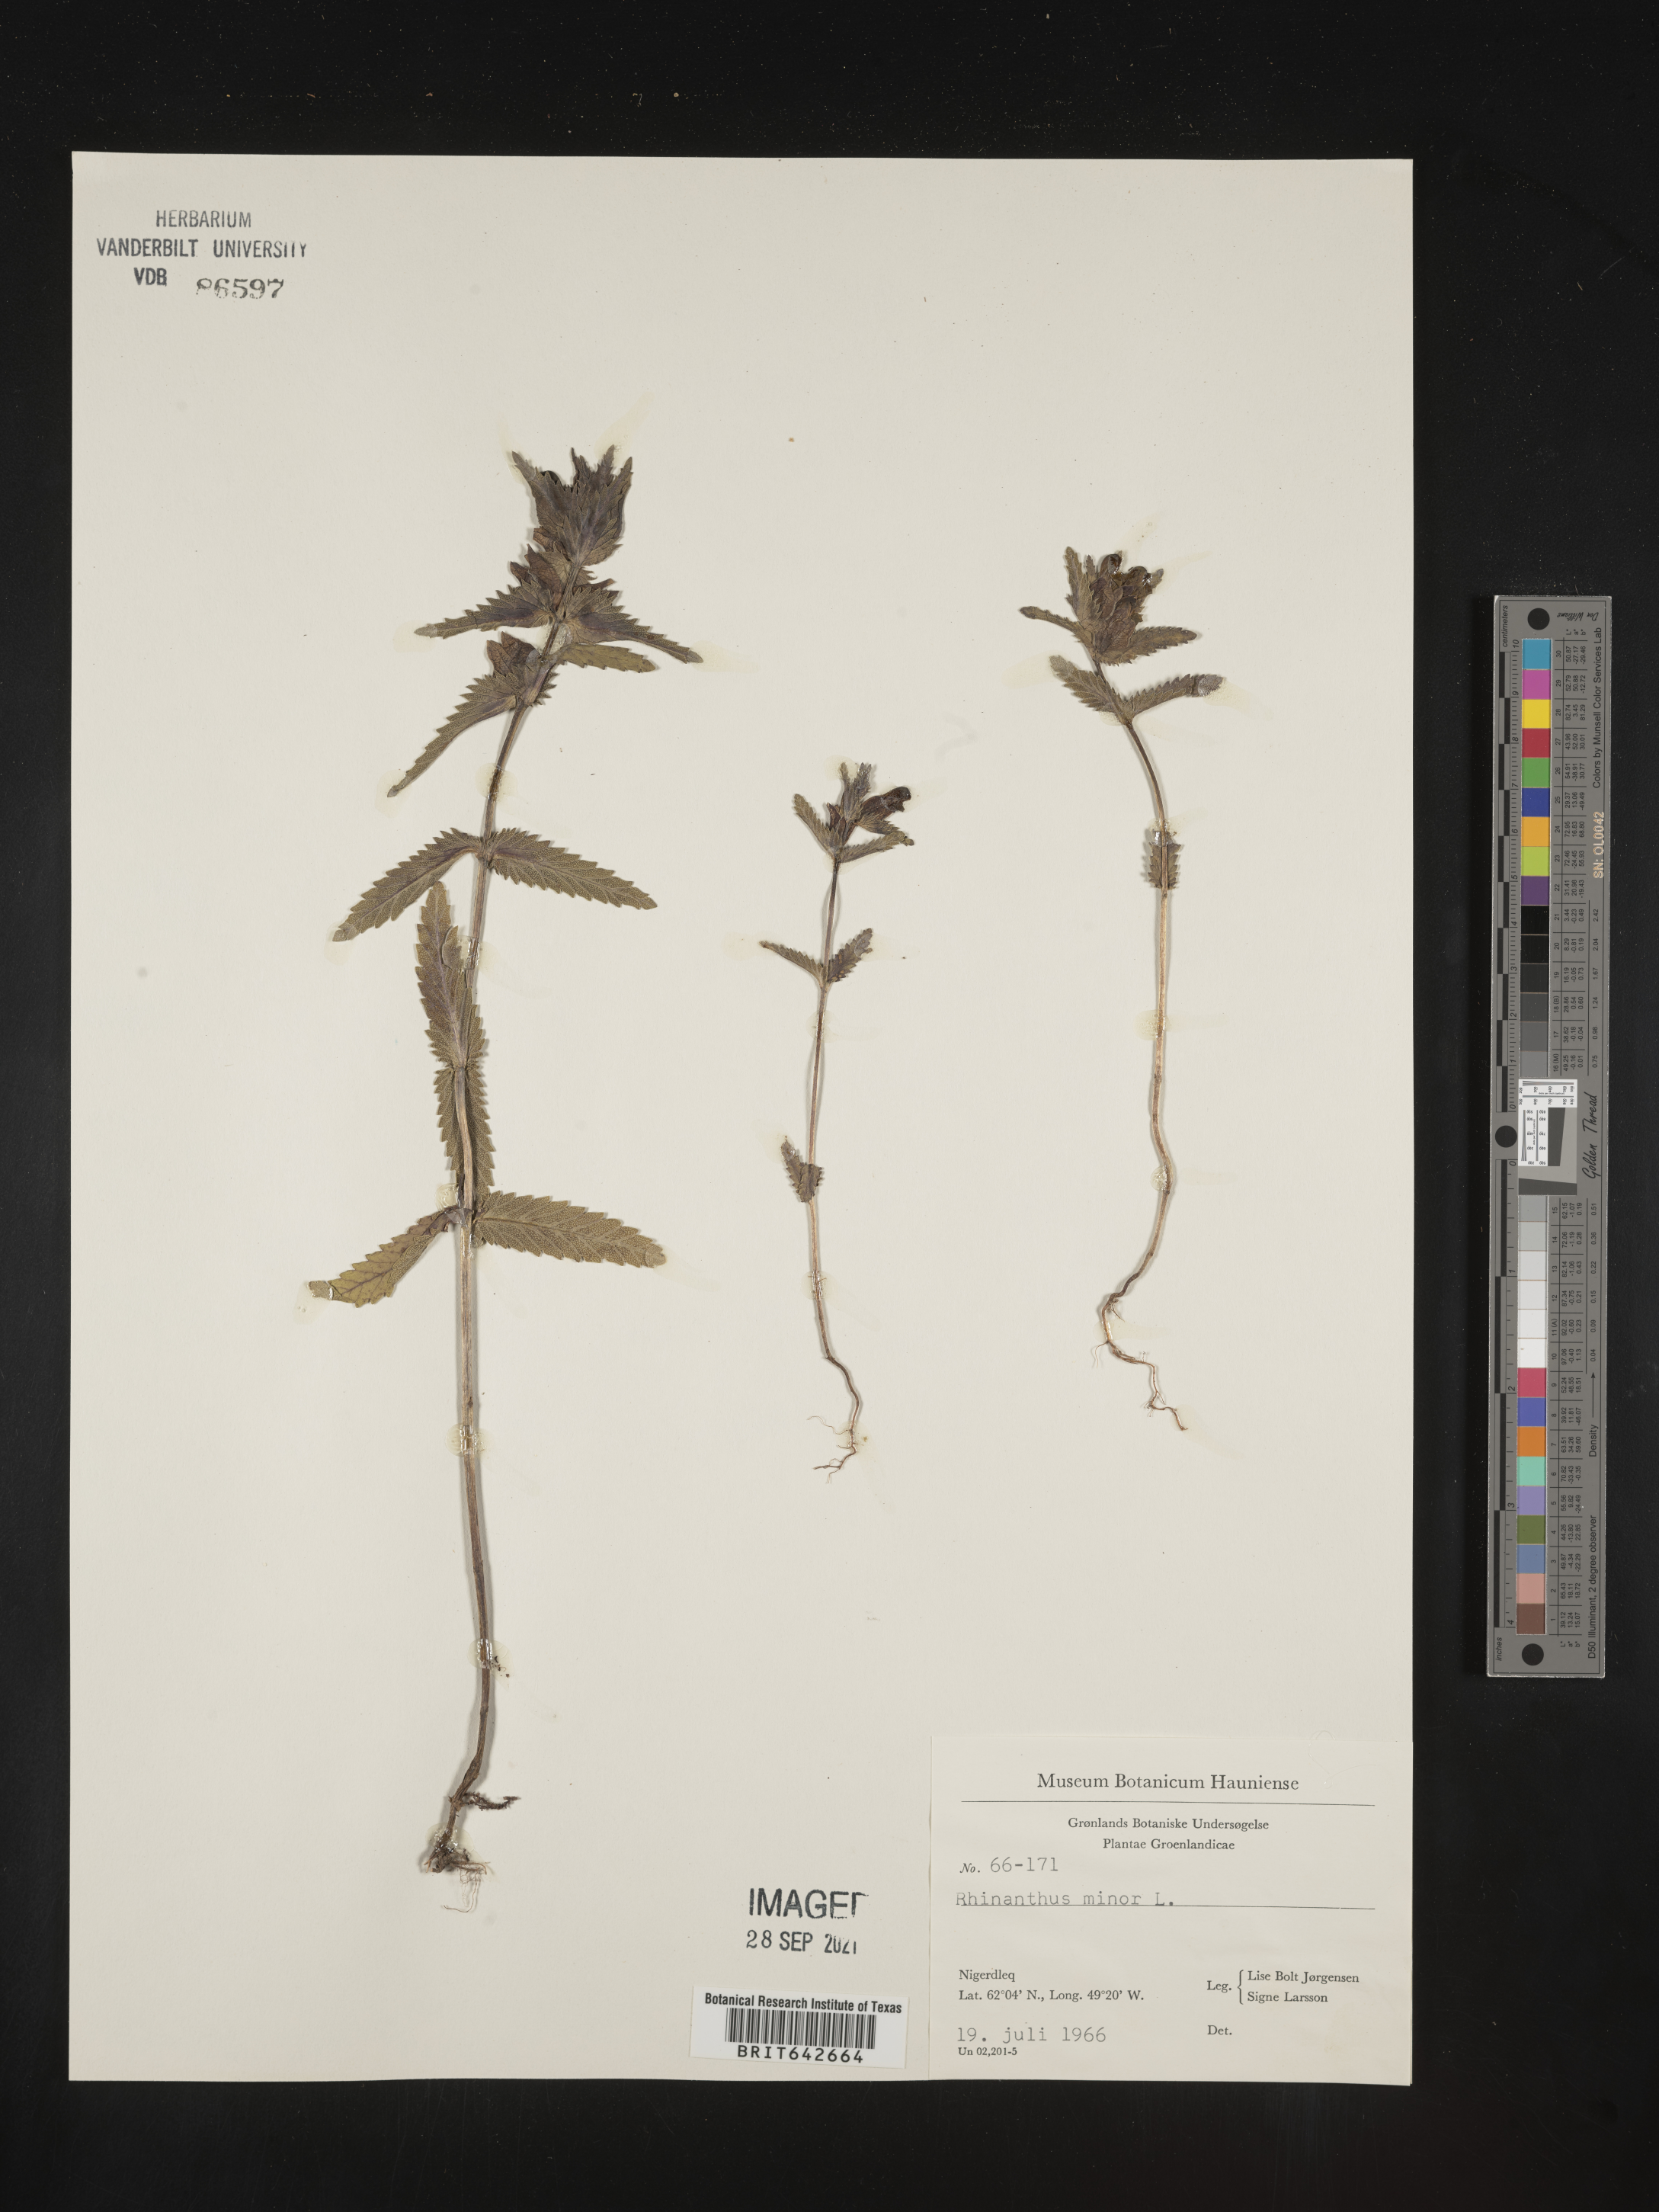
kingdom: Plantae
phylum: Tracheophyta
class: Magnoliopsida
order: Lamiales
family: Orobanchaceae
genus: Rhinanthus
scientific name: Rhinanthus
